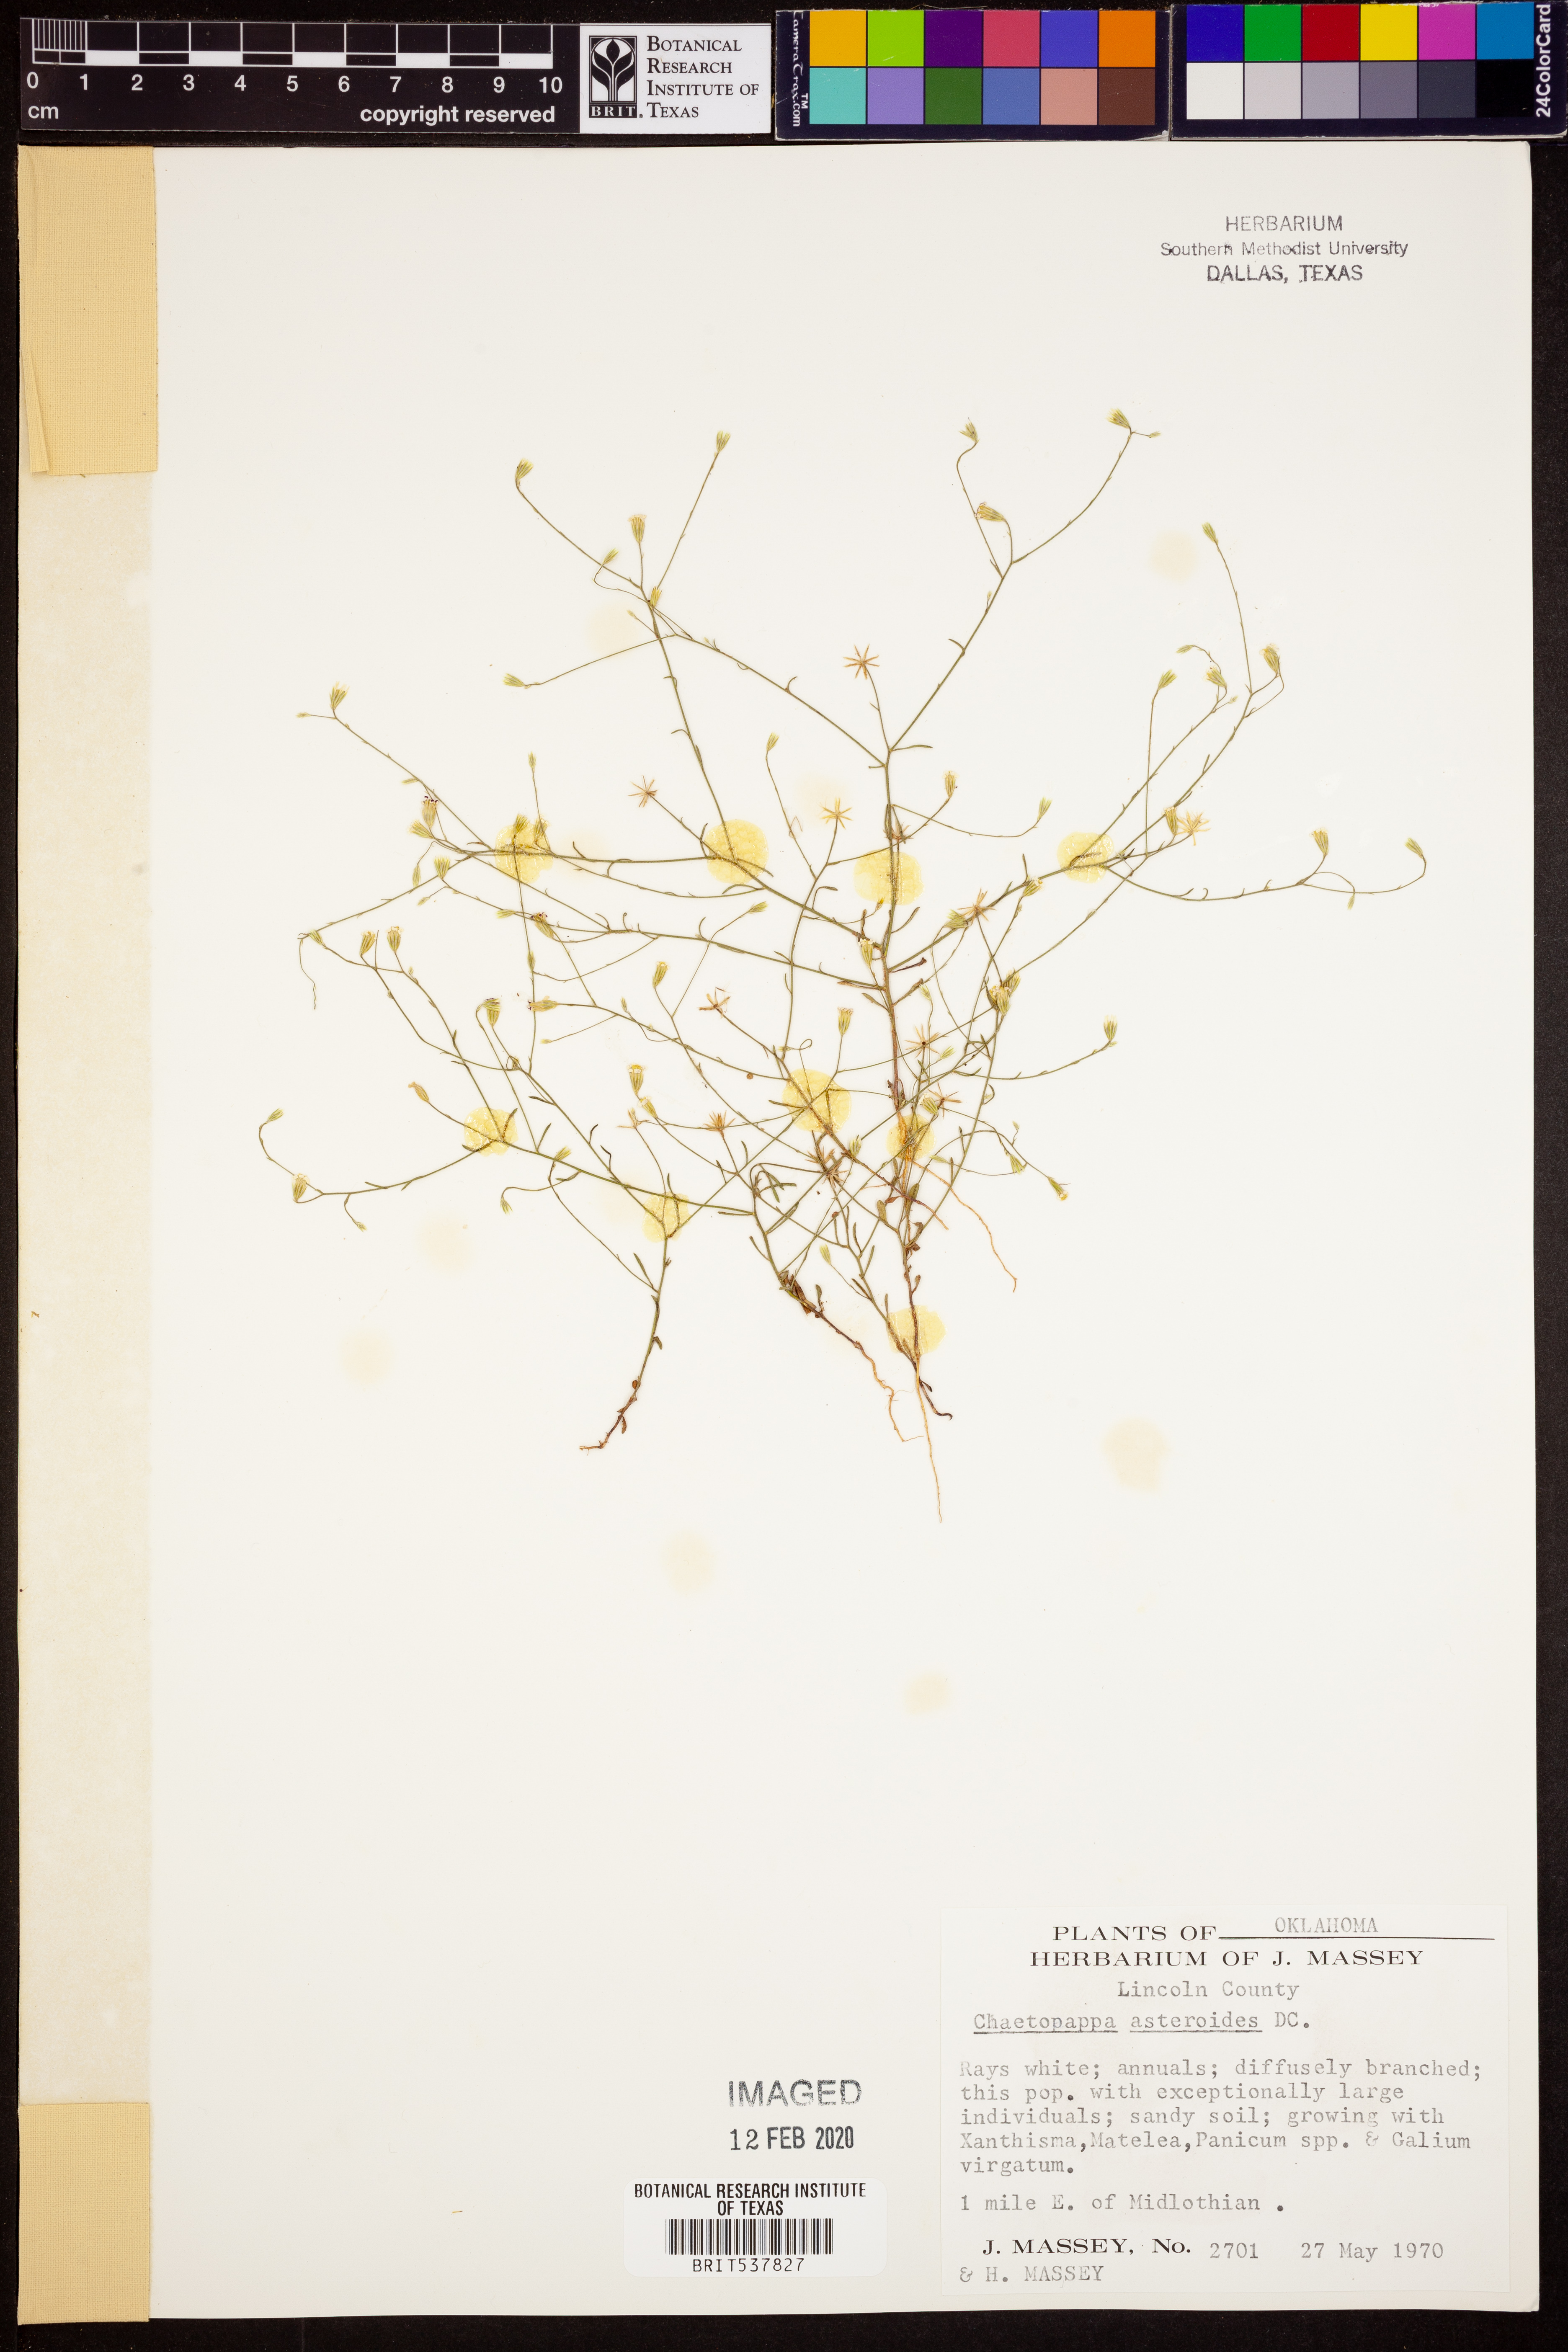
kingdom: Plantae
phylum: Tracheophyta
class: Magnoliopsida
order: Asterales
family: Asteraceae
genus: Chaetopappa
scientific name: Chaetopappa asteroides
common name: Tiny lazy daisy
